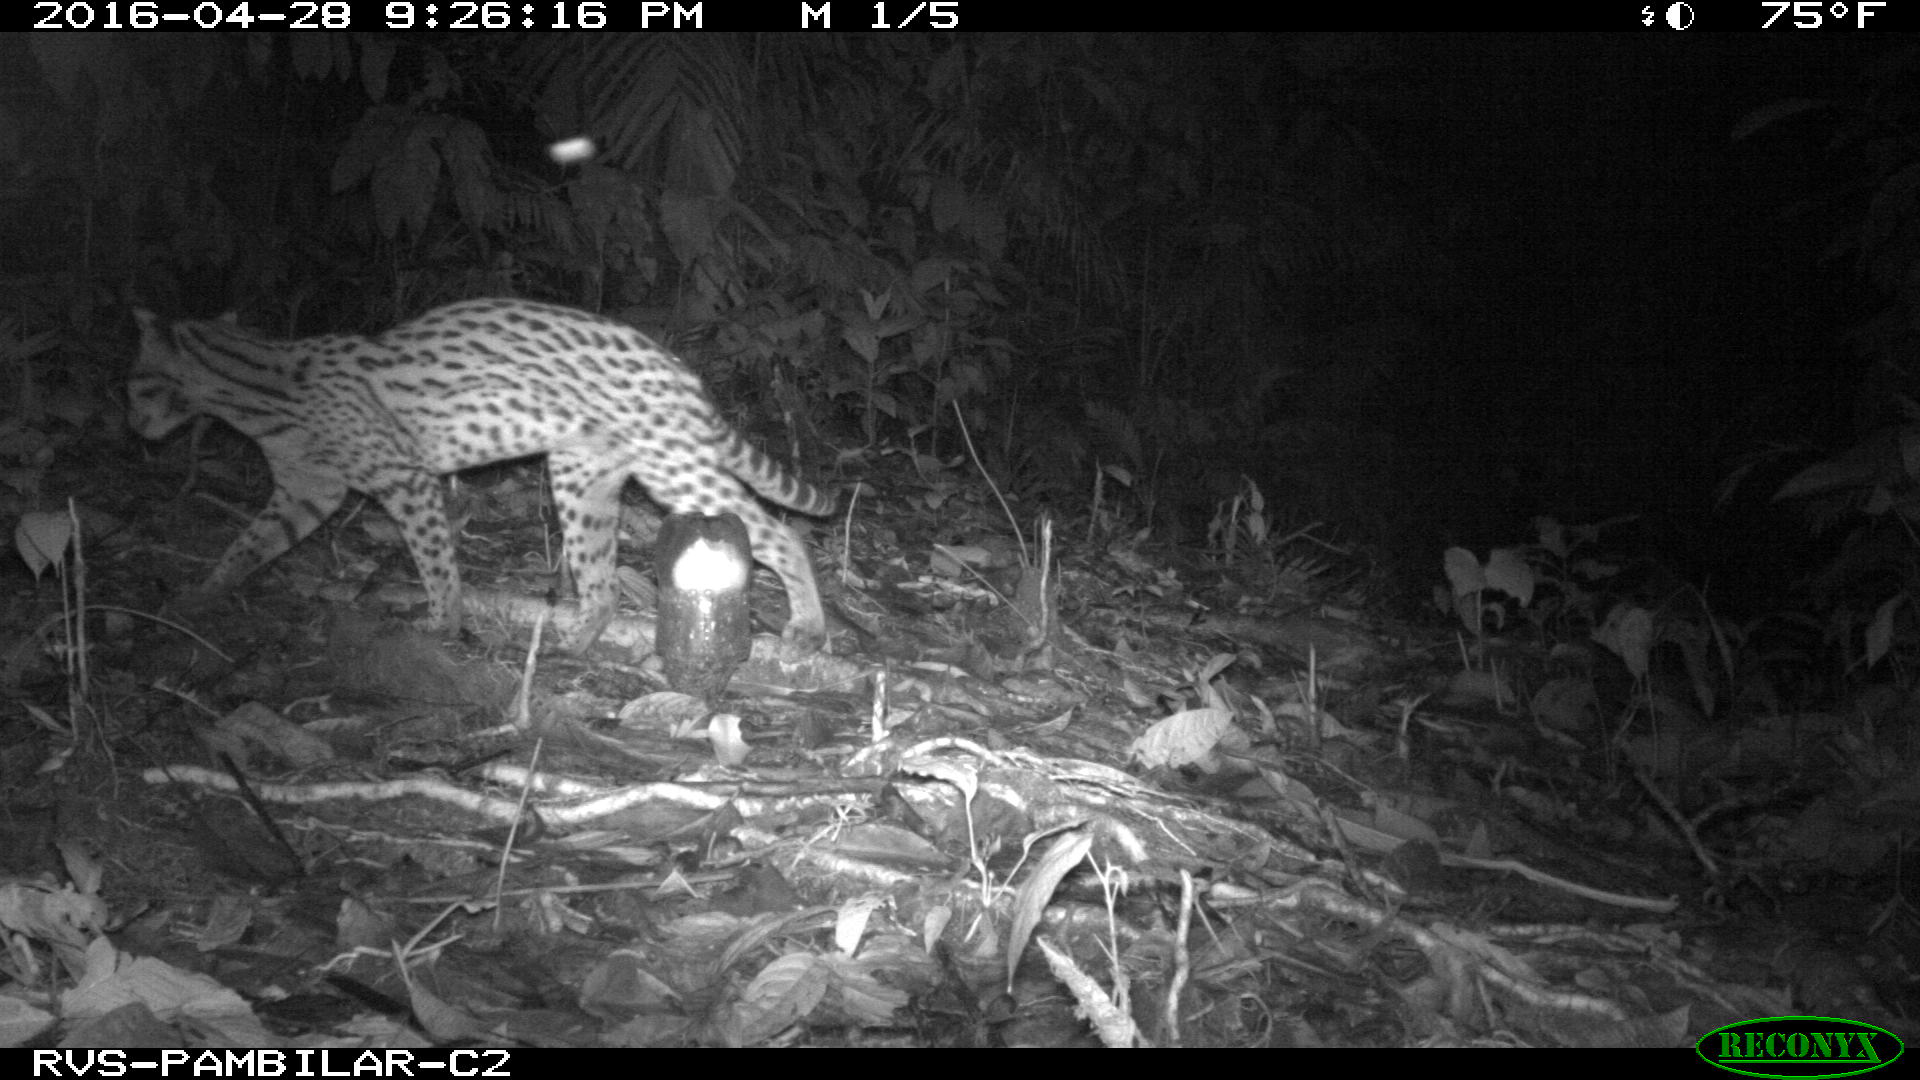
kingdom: Animalia
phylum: Chordata
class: Mammalia
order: Carnivora
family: Felidae
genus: Leopardus
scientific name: Leopardus pardalis
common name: Ocelot
